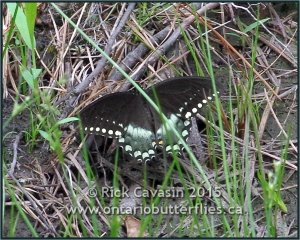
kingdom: Animalia
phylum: Arthropoda
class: Insecta
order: Lepidoptera
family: Papilionidae
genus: Pterourus
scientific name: Pterourus troilus
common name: Spicebush Swallowtail
